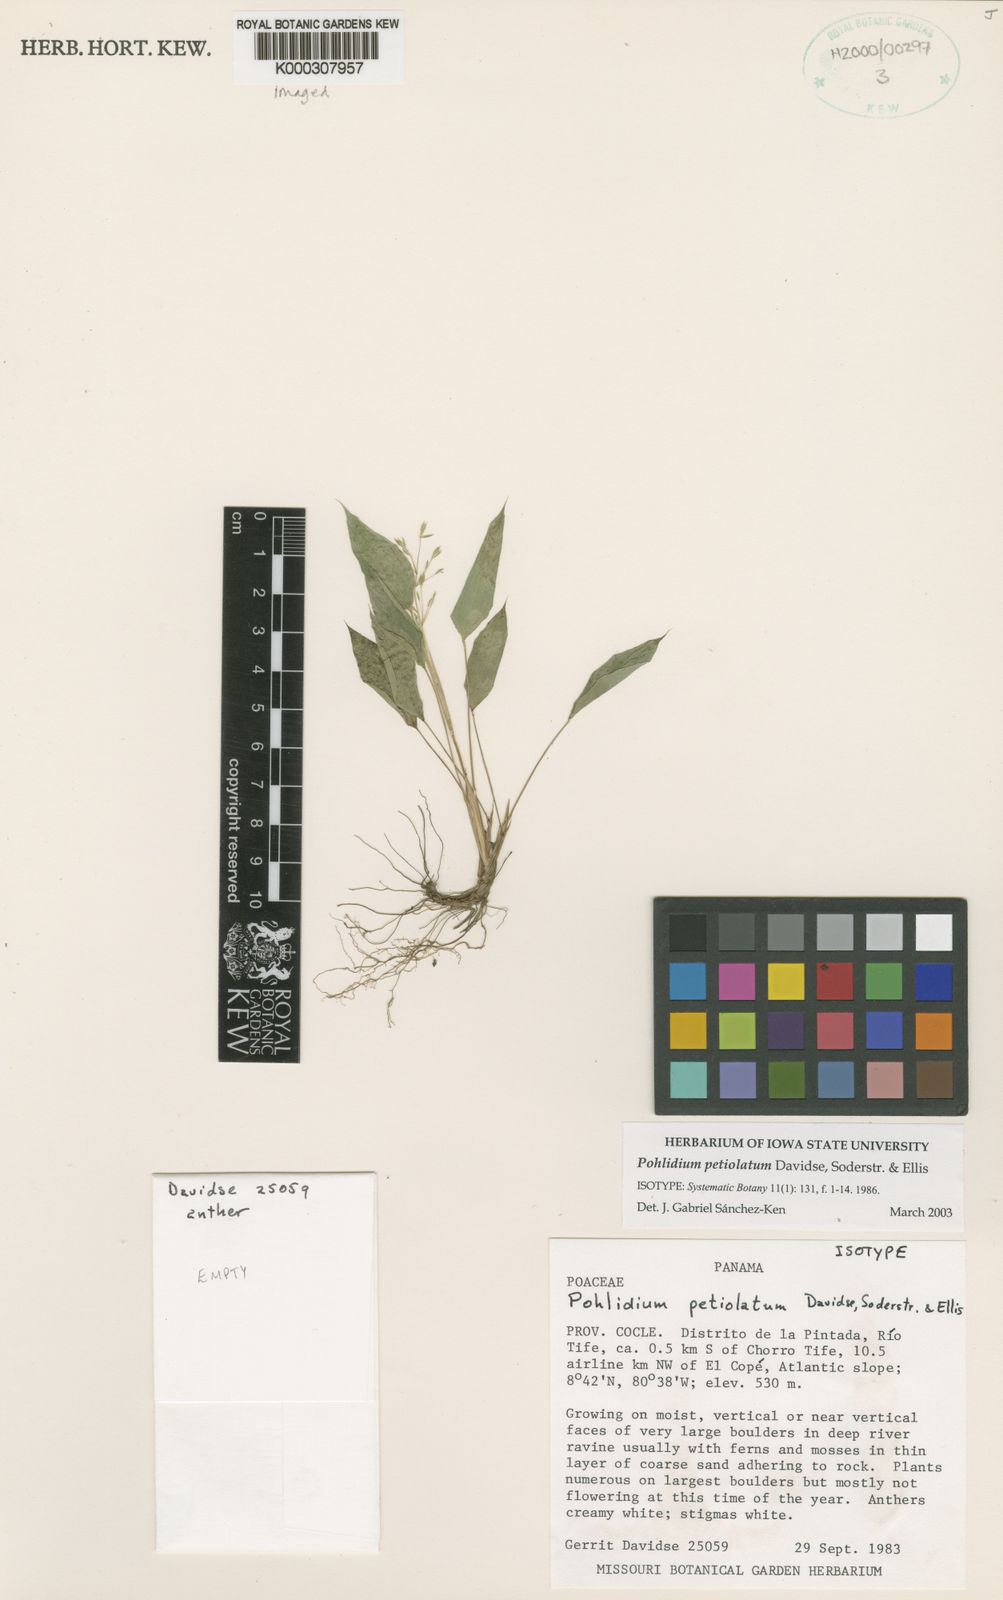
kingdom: Plantae
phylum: Tracheophyta
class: Liliopsida
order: Poales
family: Poaceae
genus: Pohlidium
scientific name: Pohlidium petiolatum
